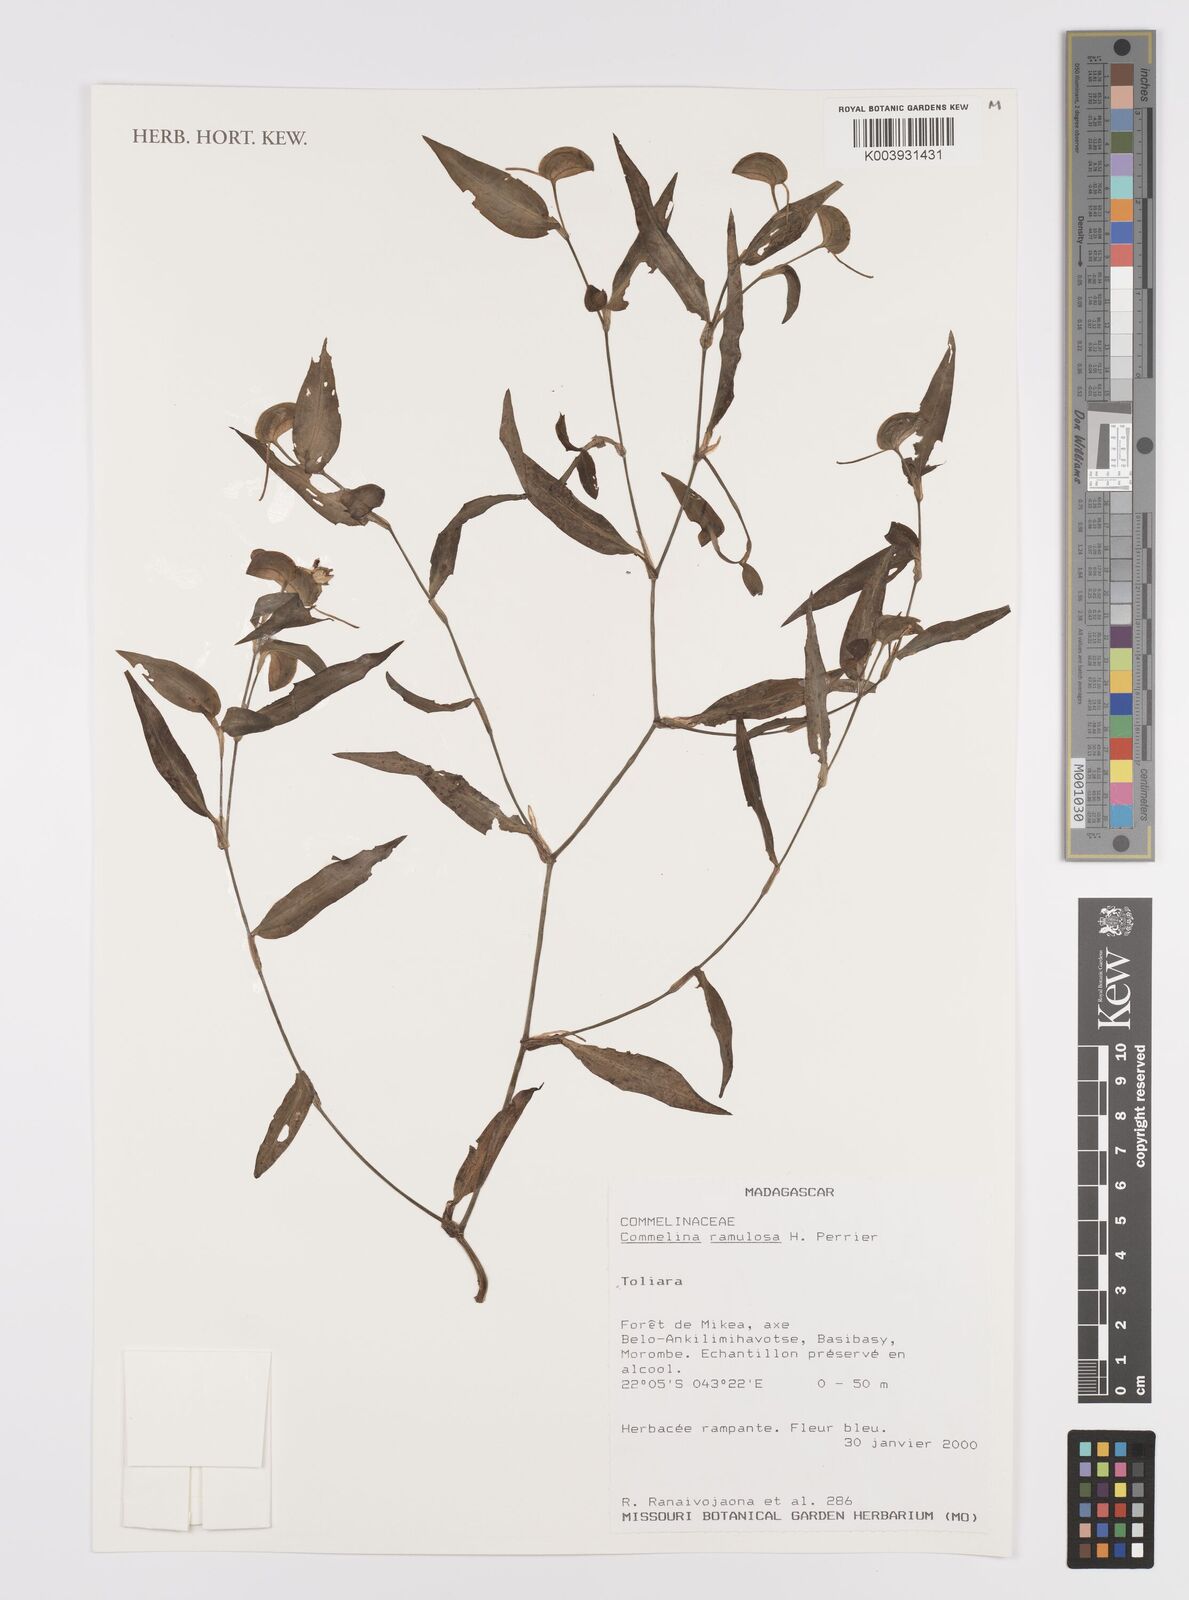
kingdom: Plantae
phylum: Tracheophyta
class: Liliopsida
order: Commelinales
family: Commelinaceae
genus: Commelina
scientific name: Commelina ramulosa
